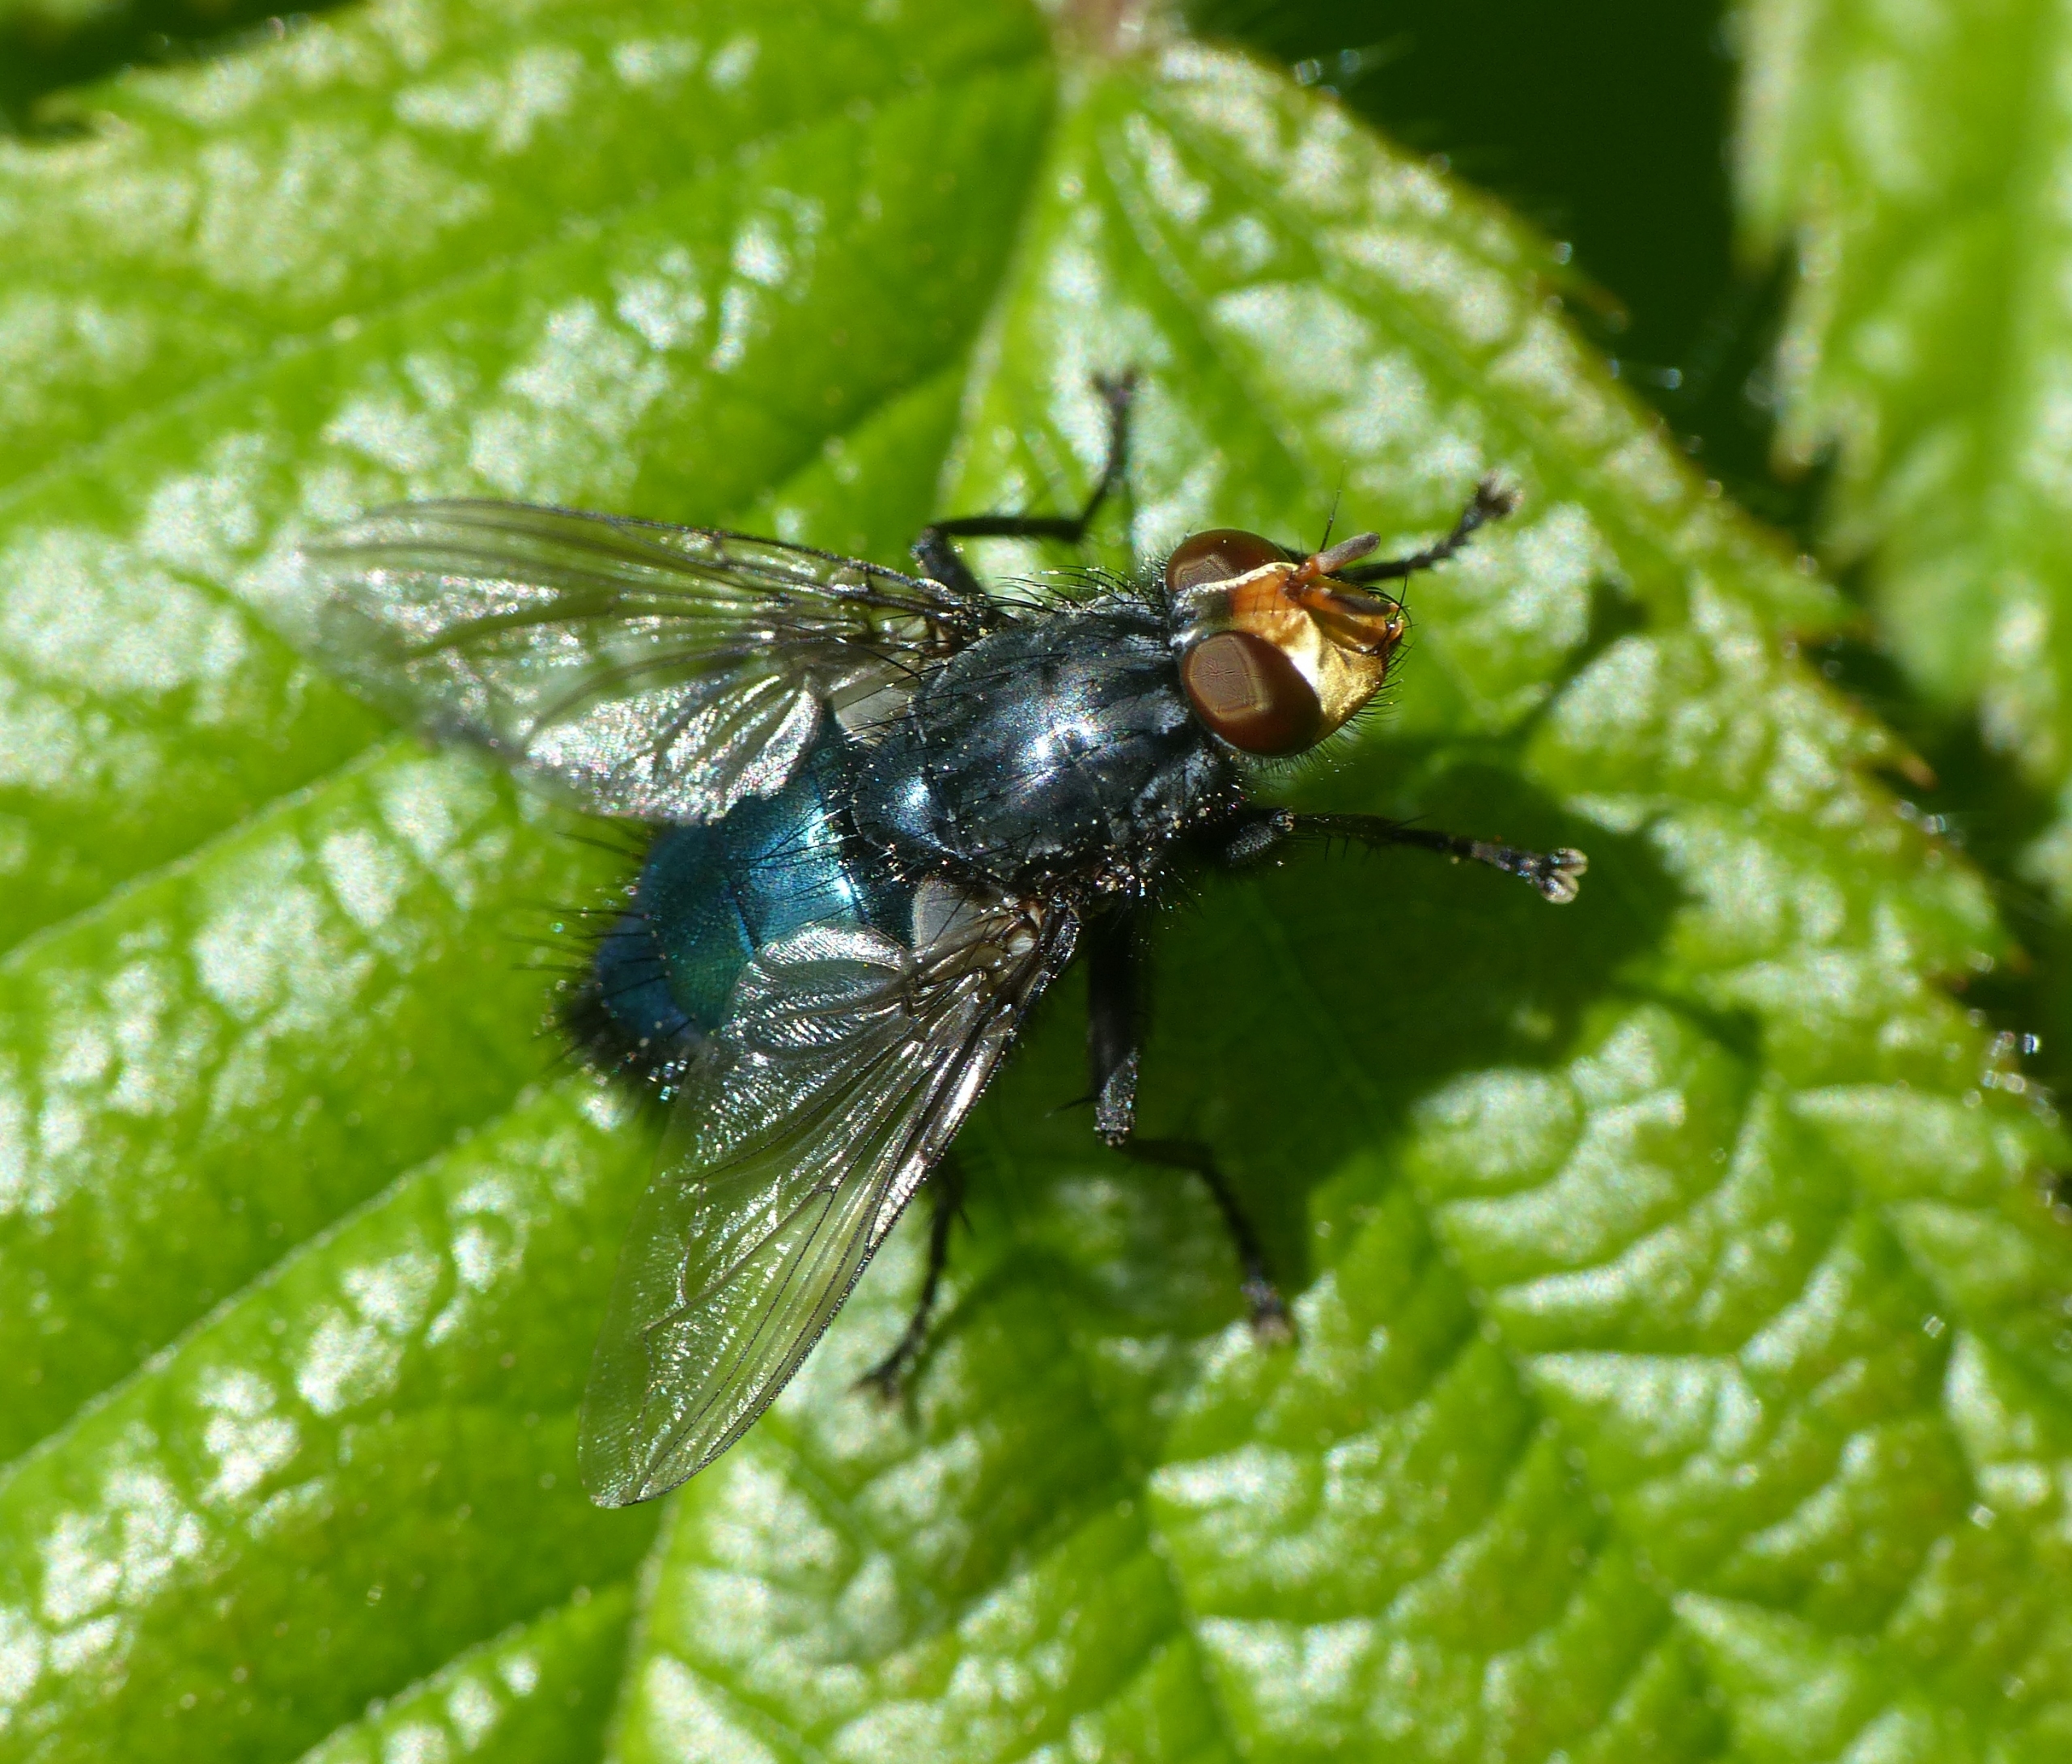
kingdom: Animalia
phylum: Arthropoda
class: Insecta
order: Diptera
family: Calliphoridae
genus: Cynomya
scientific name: Cynomya mortuorum
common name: Dødsflue
